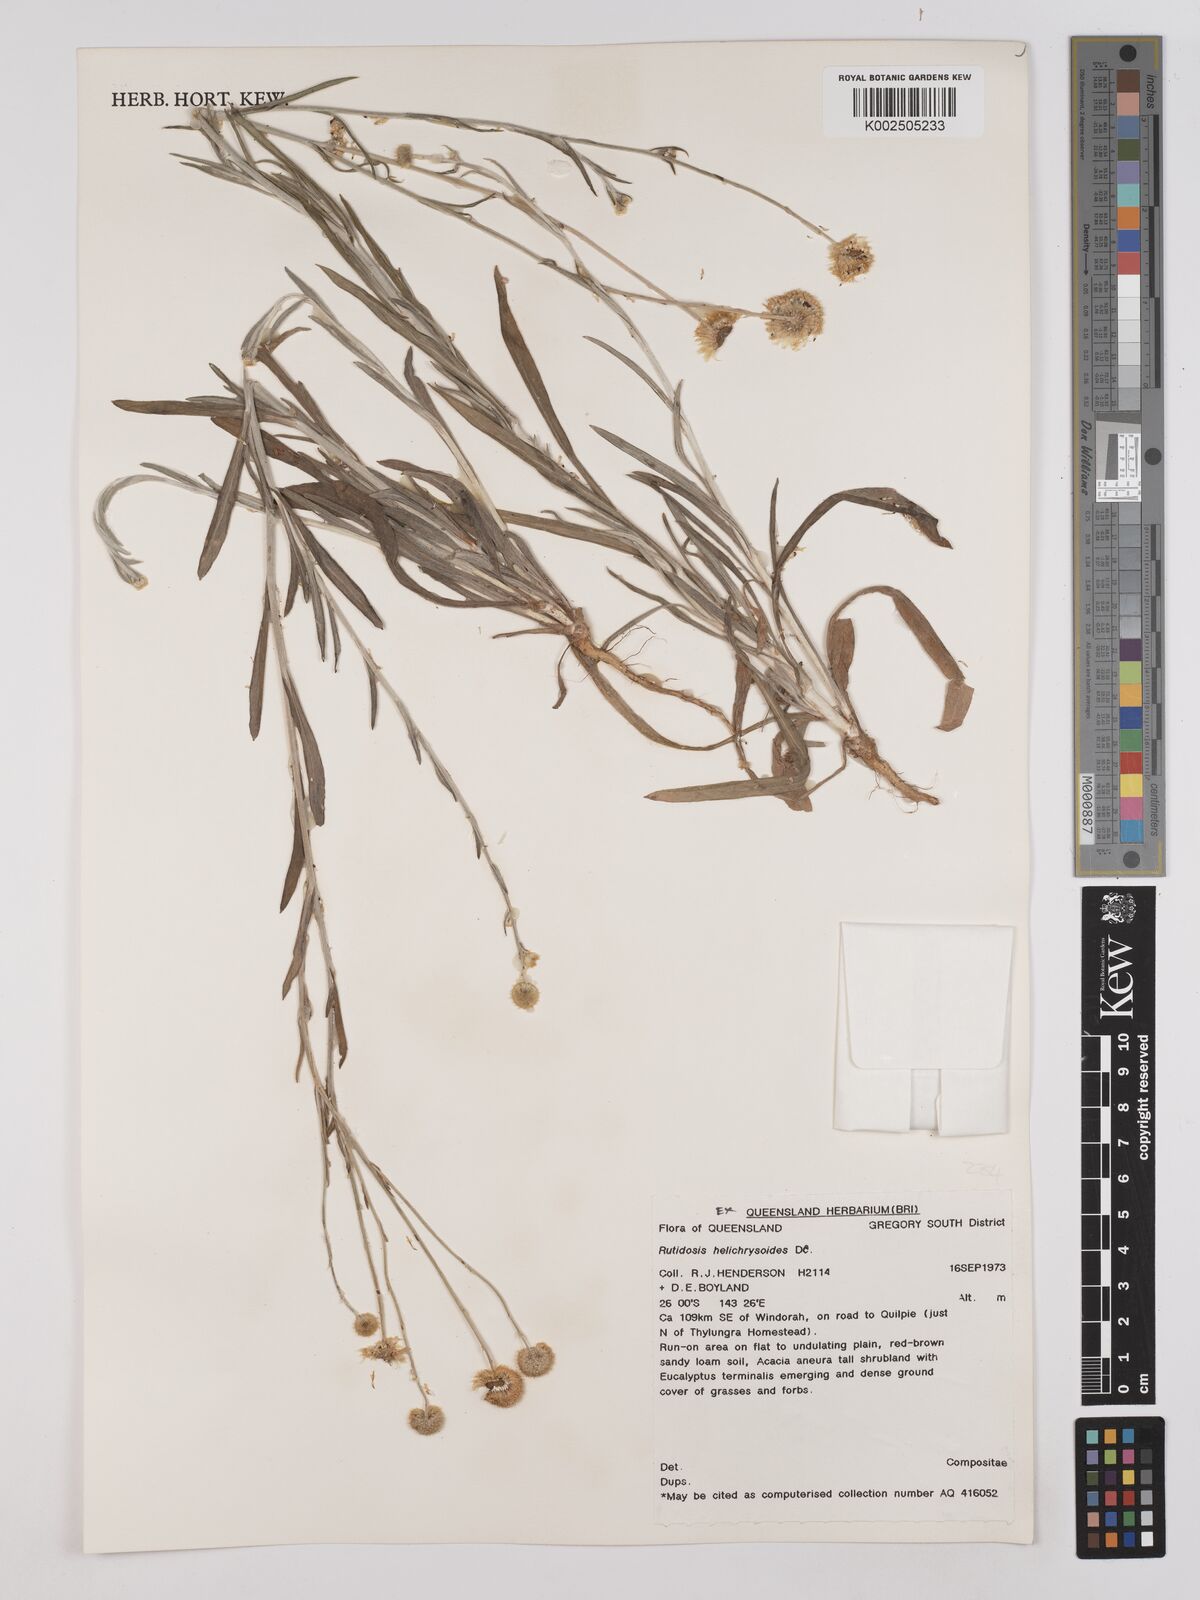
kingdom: Plantae
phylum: Tracheophyta
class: Magnoliopsida
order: Asterales
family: Asteraceae
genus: Rutidosis
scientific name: Rutidosis helichrysoides
